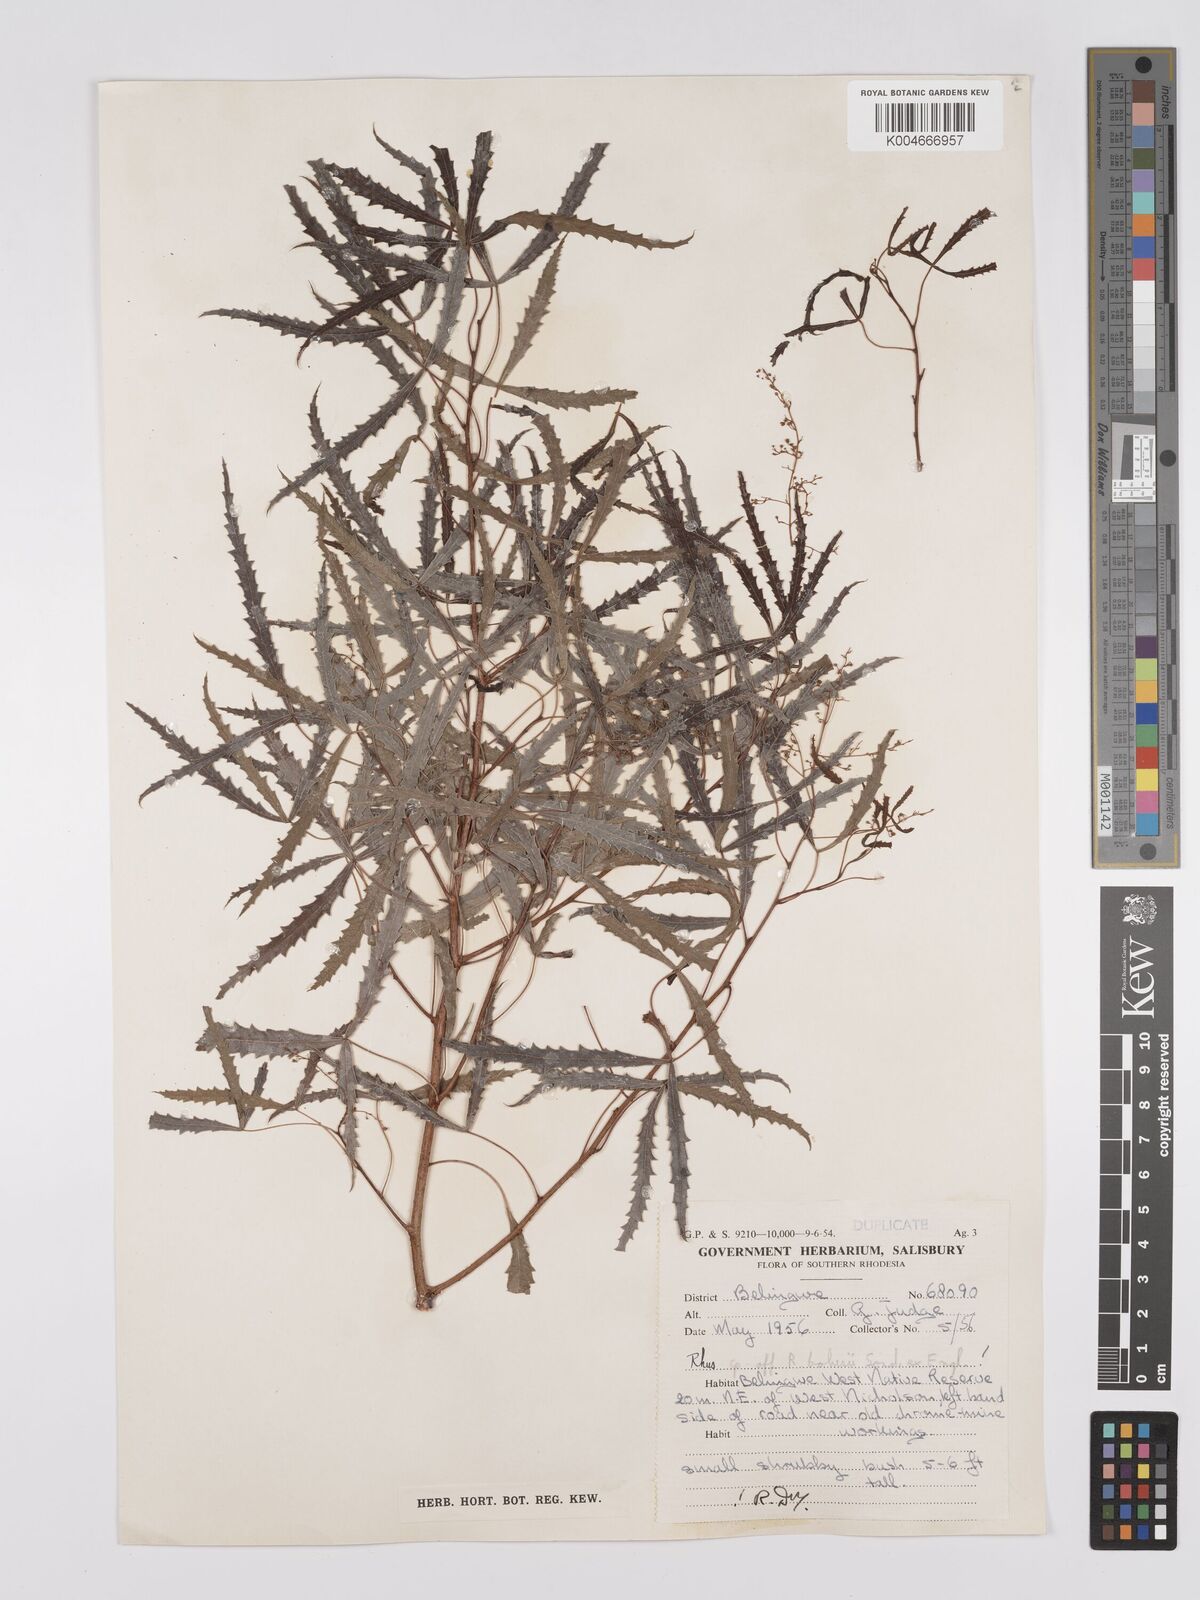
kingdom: Plantae
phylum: Tracheophyta
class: Magnoliopsida
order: Sapindales
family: Anacardiaceae
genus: Searsia
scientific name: Searsia tenuipes
